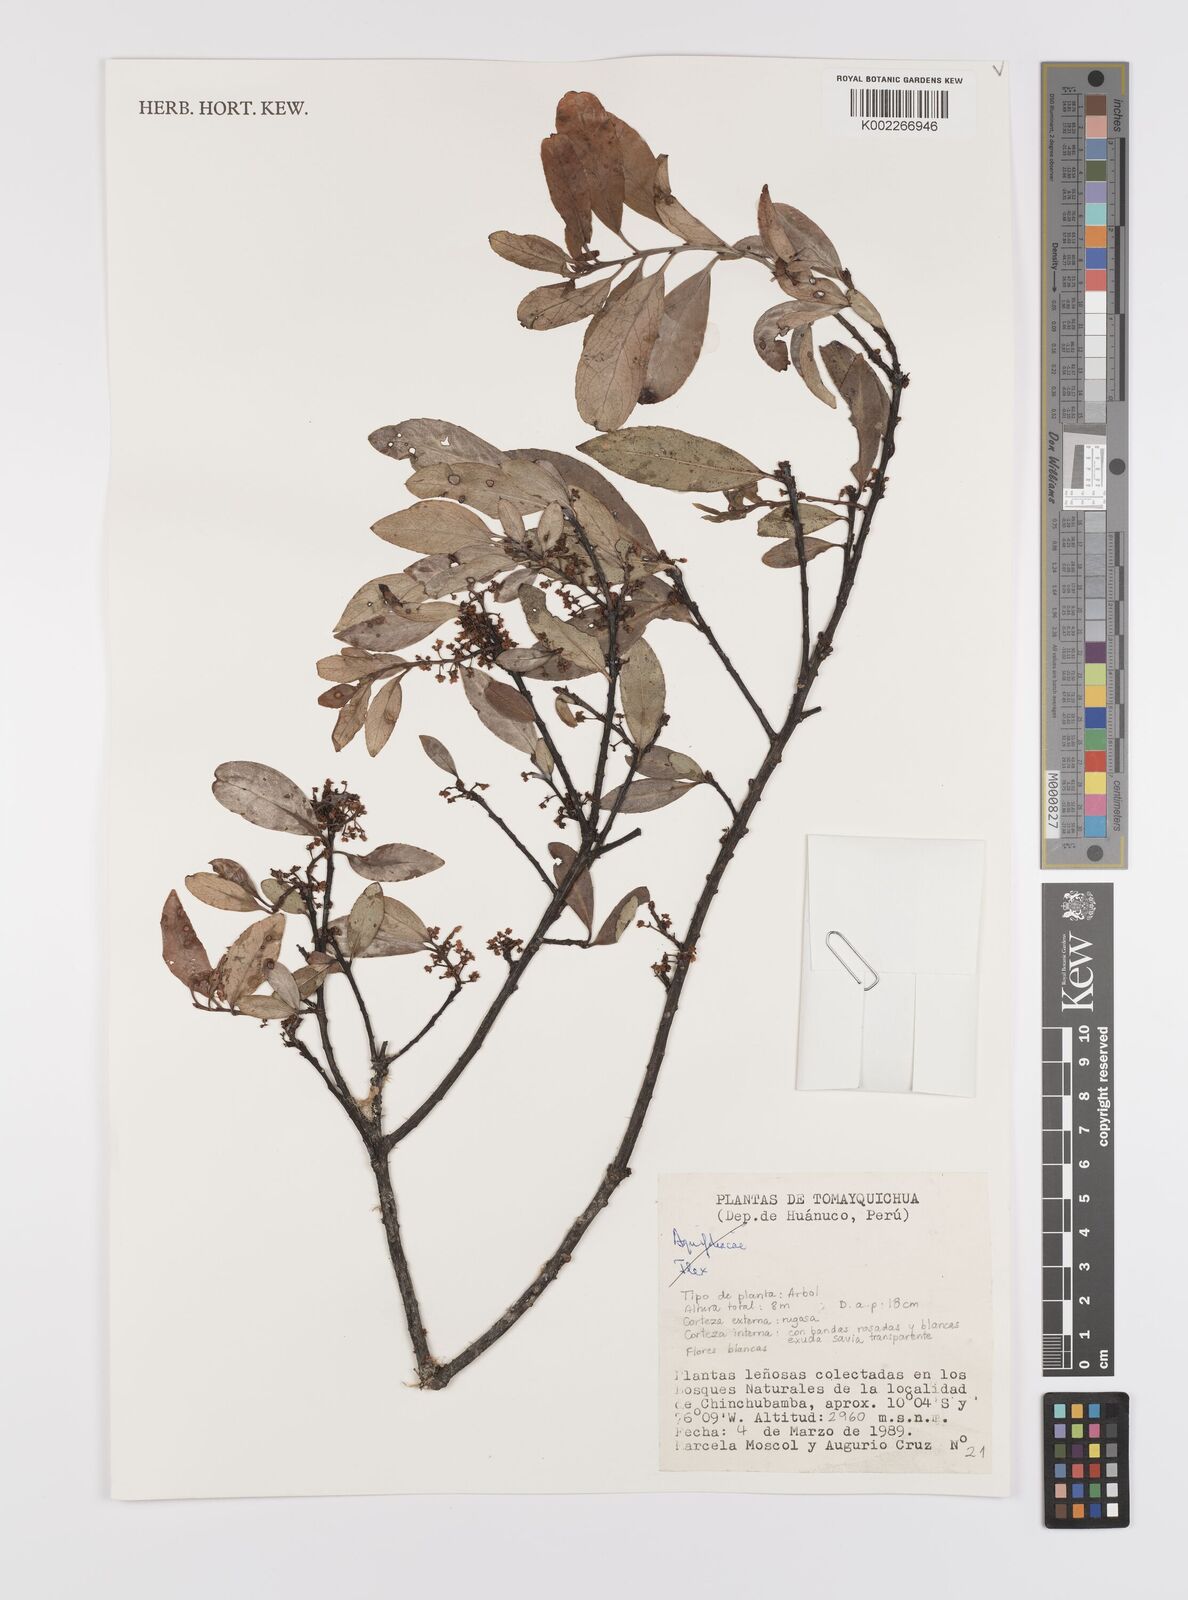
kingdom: Plantae
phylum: Tracheophyta
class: Magnoliopsida
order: Celastrales
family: Celastraceae
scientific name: Celastraceae
